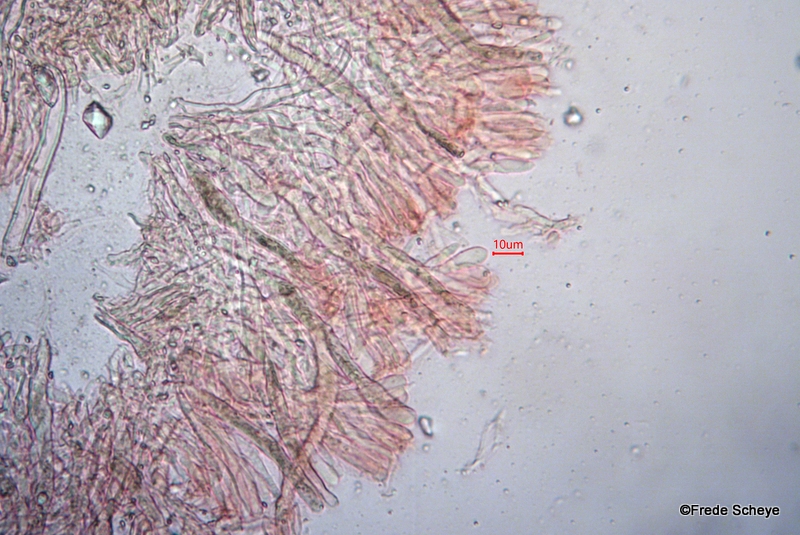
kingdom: Fungi
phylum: Basidiomycota
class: Agaricomycetes
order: Russulales
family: Stereaceae
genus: Stereum
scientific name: Stereum rugosum
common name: rynket lædersvamp
